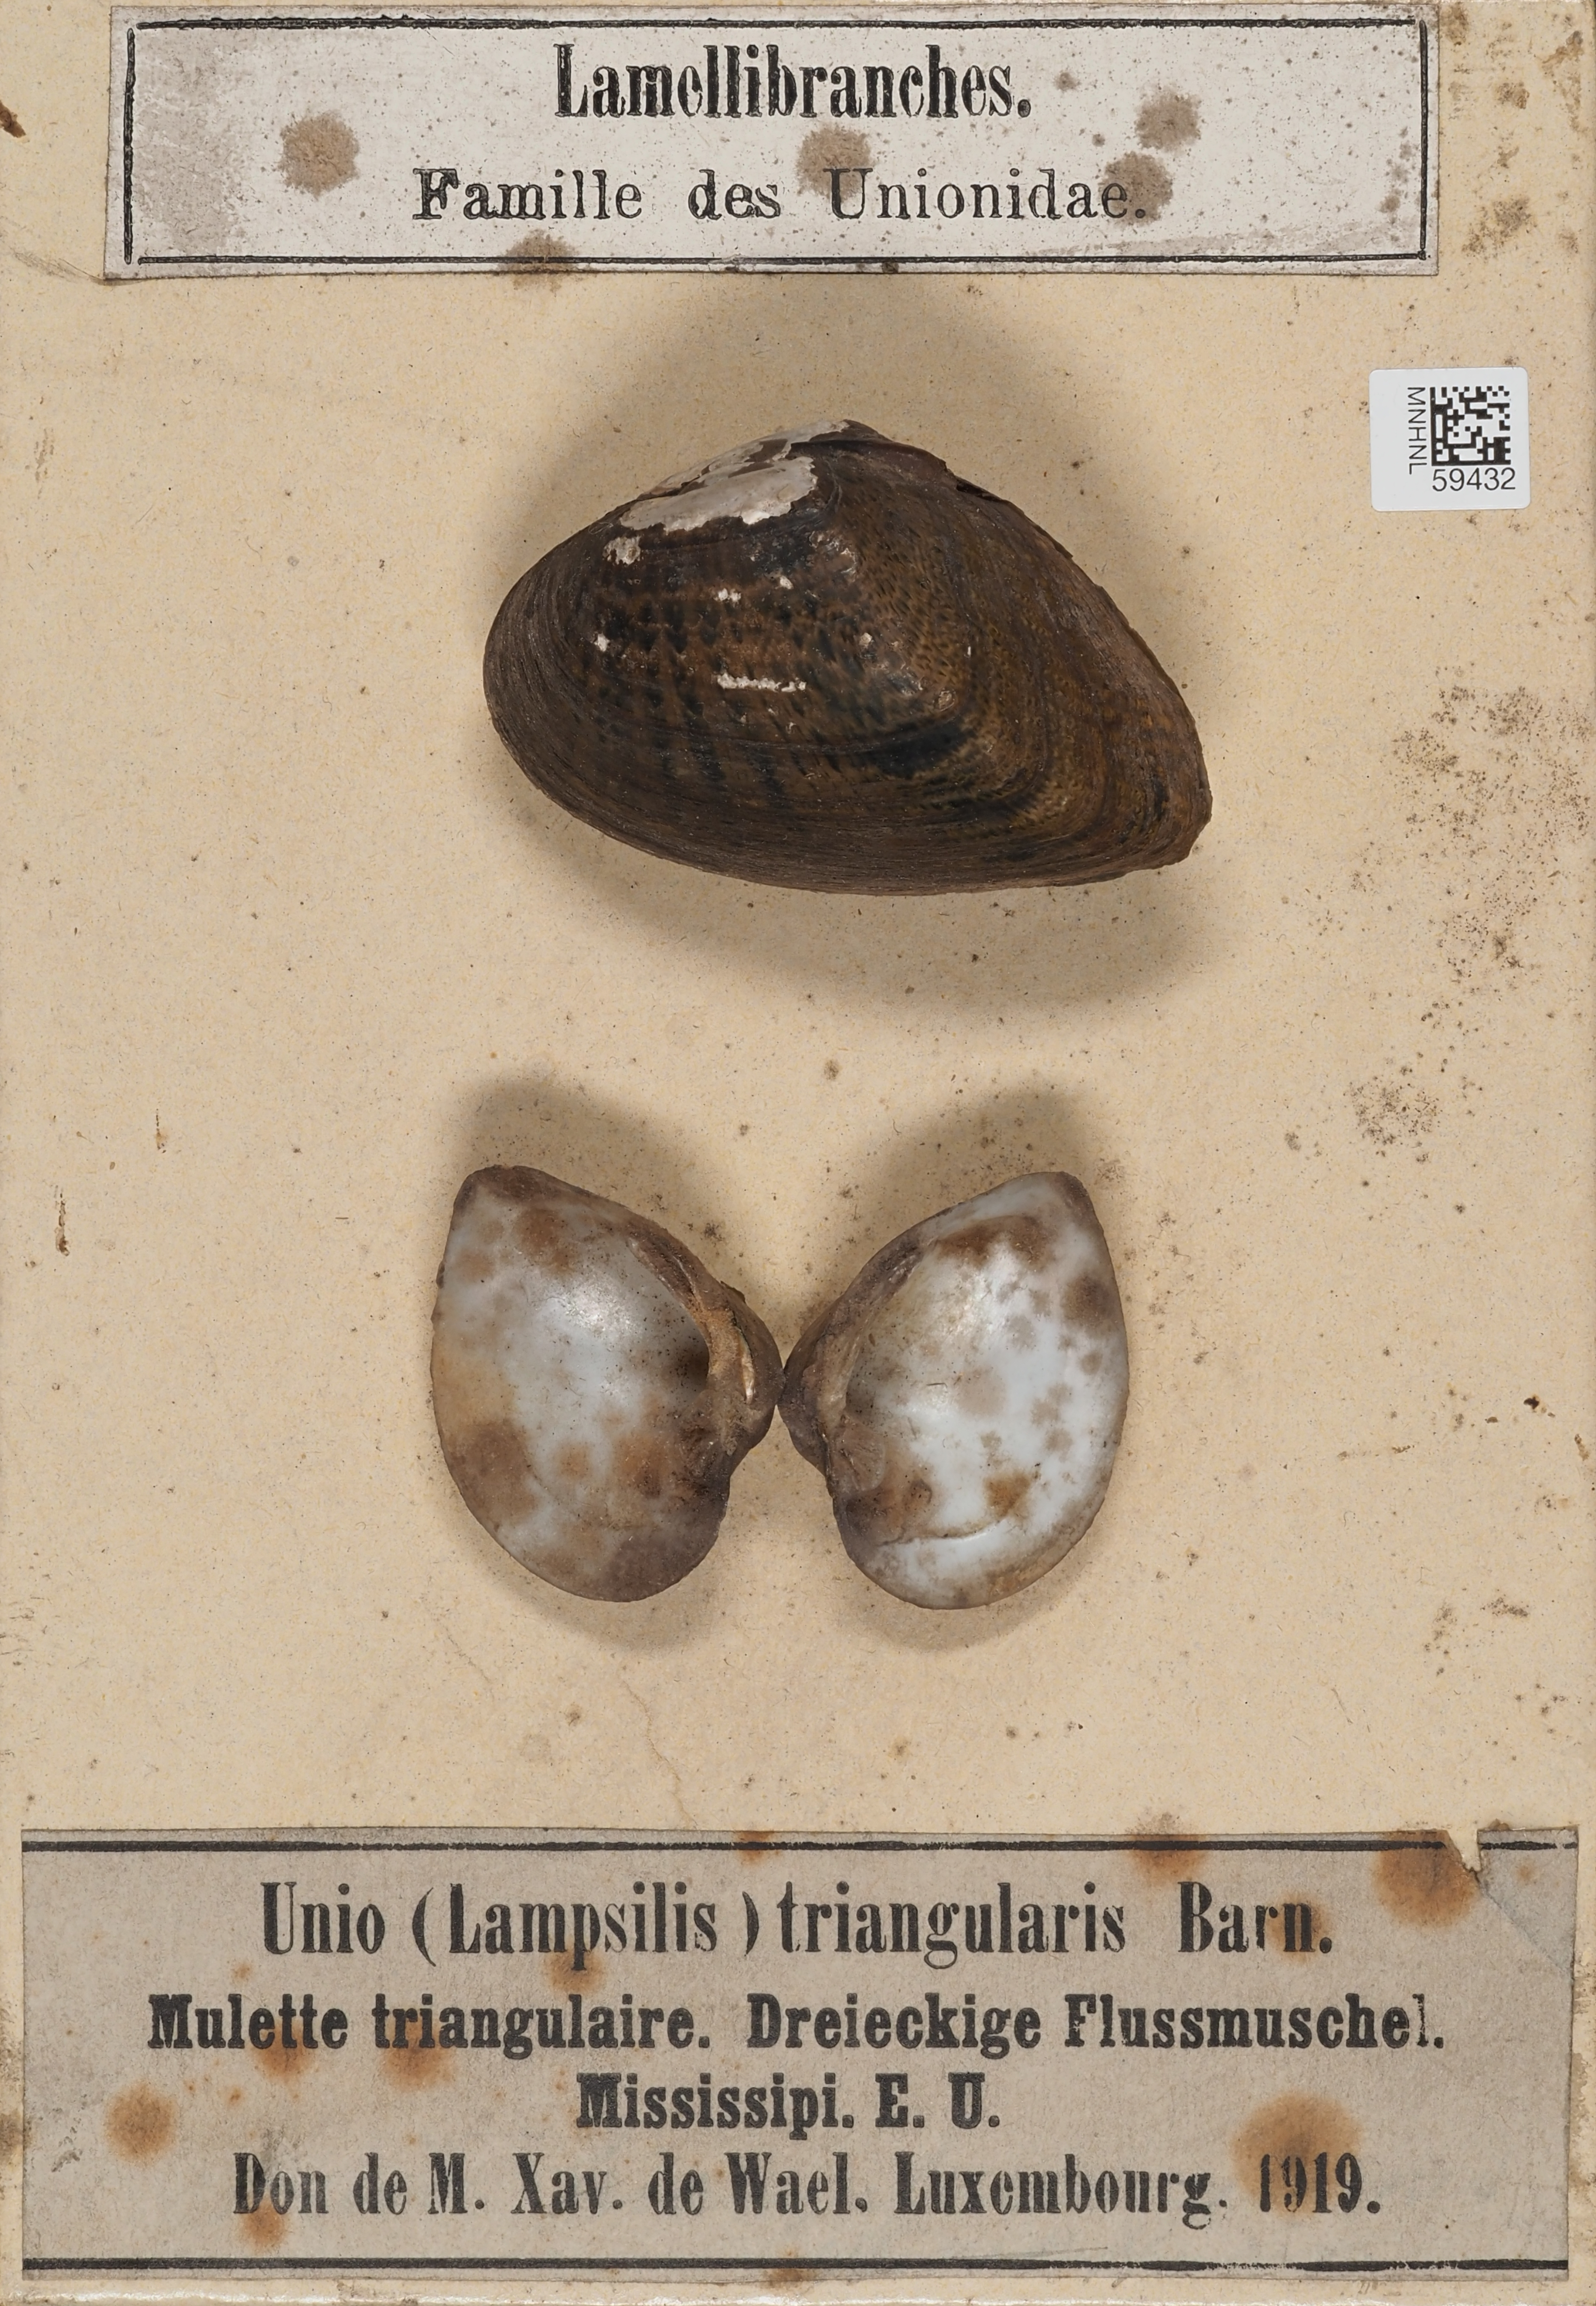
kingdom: Animalia
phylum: Mollusca
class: Bivalvia
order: Unionida
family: Unionidae
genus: Lampsilis
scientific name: Lampsilis
